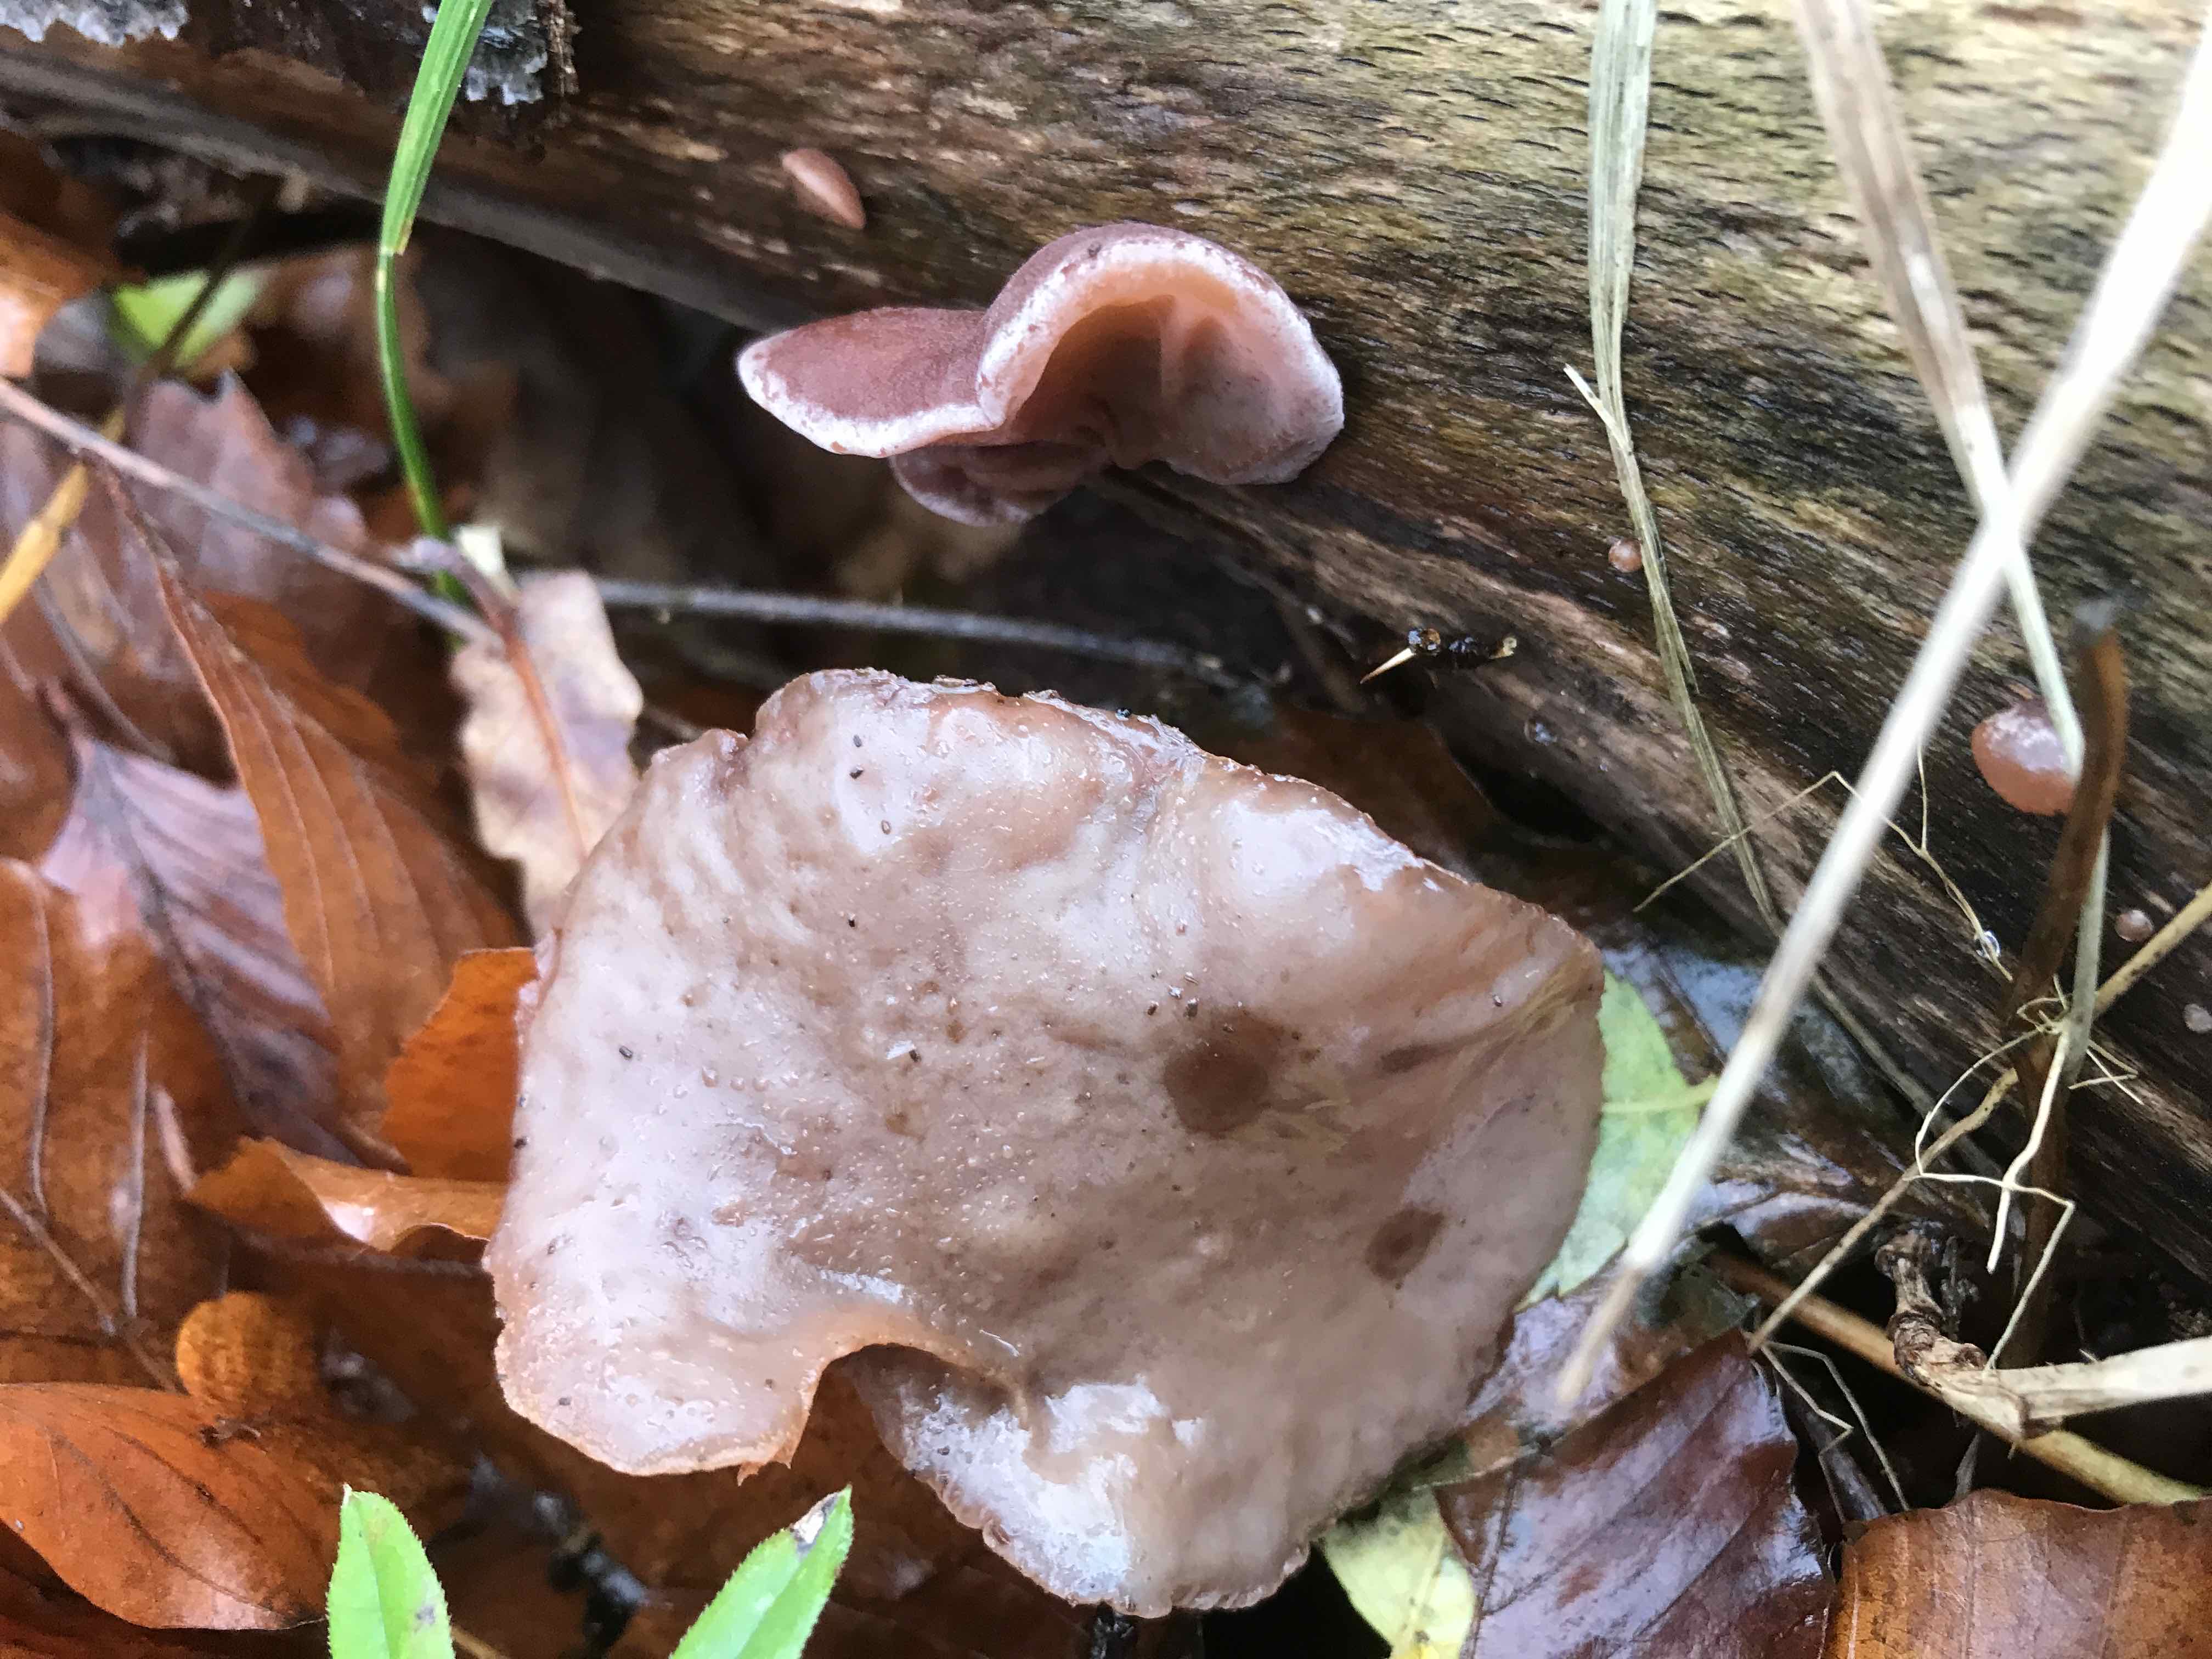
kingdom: Fungi
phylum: Basidiomycota
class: Agaricomycetes
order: Auriculariales
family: Auriculariaceae
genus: Auricularia
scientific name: Auricularia auricula-judae
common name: almindelig judasøre
